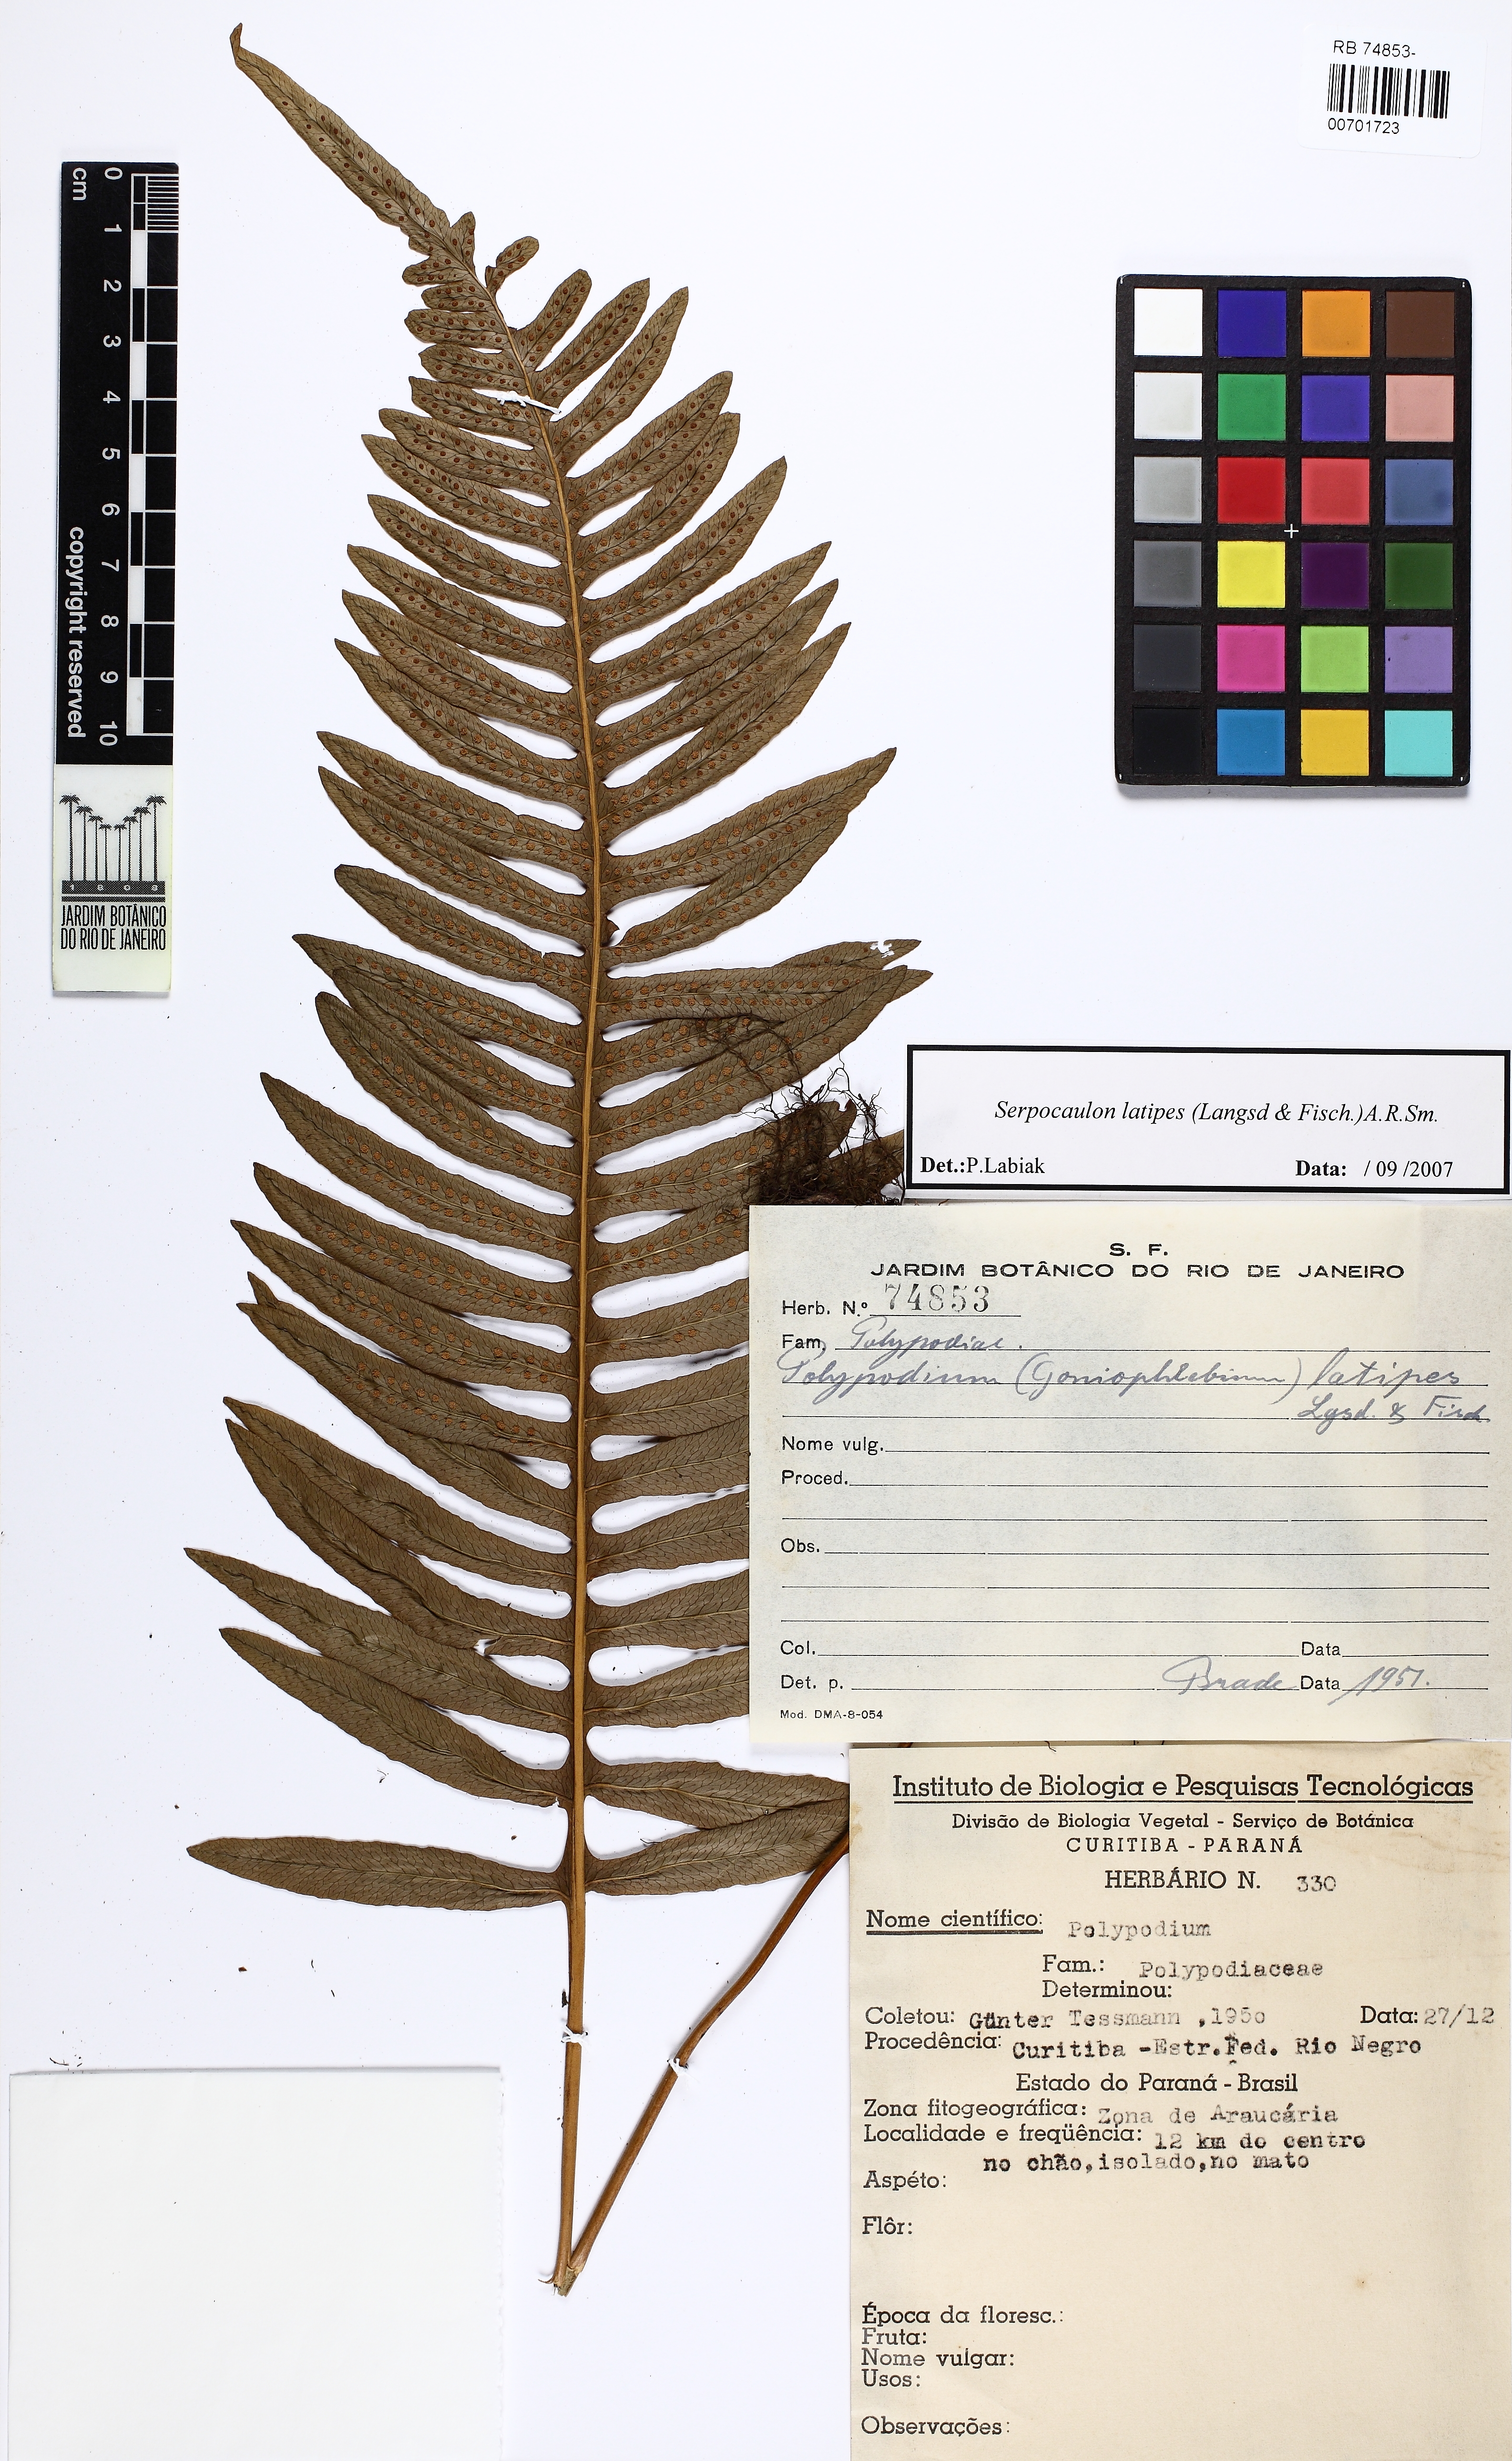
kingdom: Plantae
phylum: Tracheophyta
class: Polypodiopsida
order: Polypodiales
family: Polypodiaceae
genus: Serpocaulon
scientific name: Serpocaulon latipes
